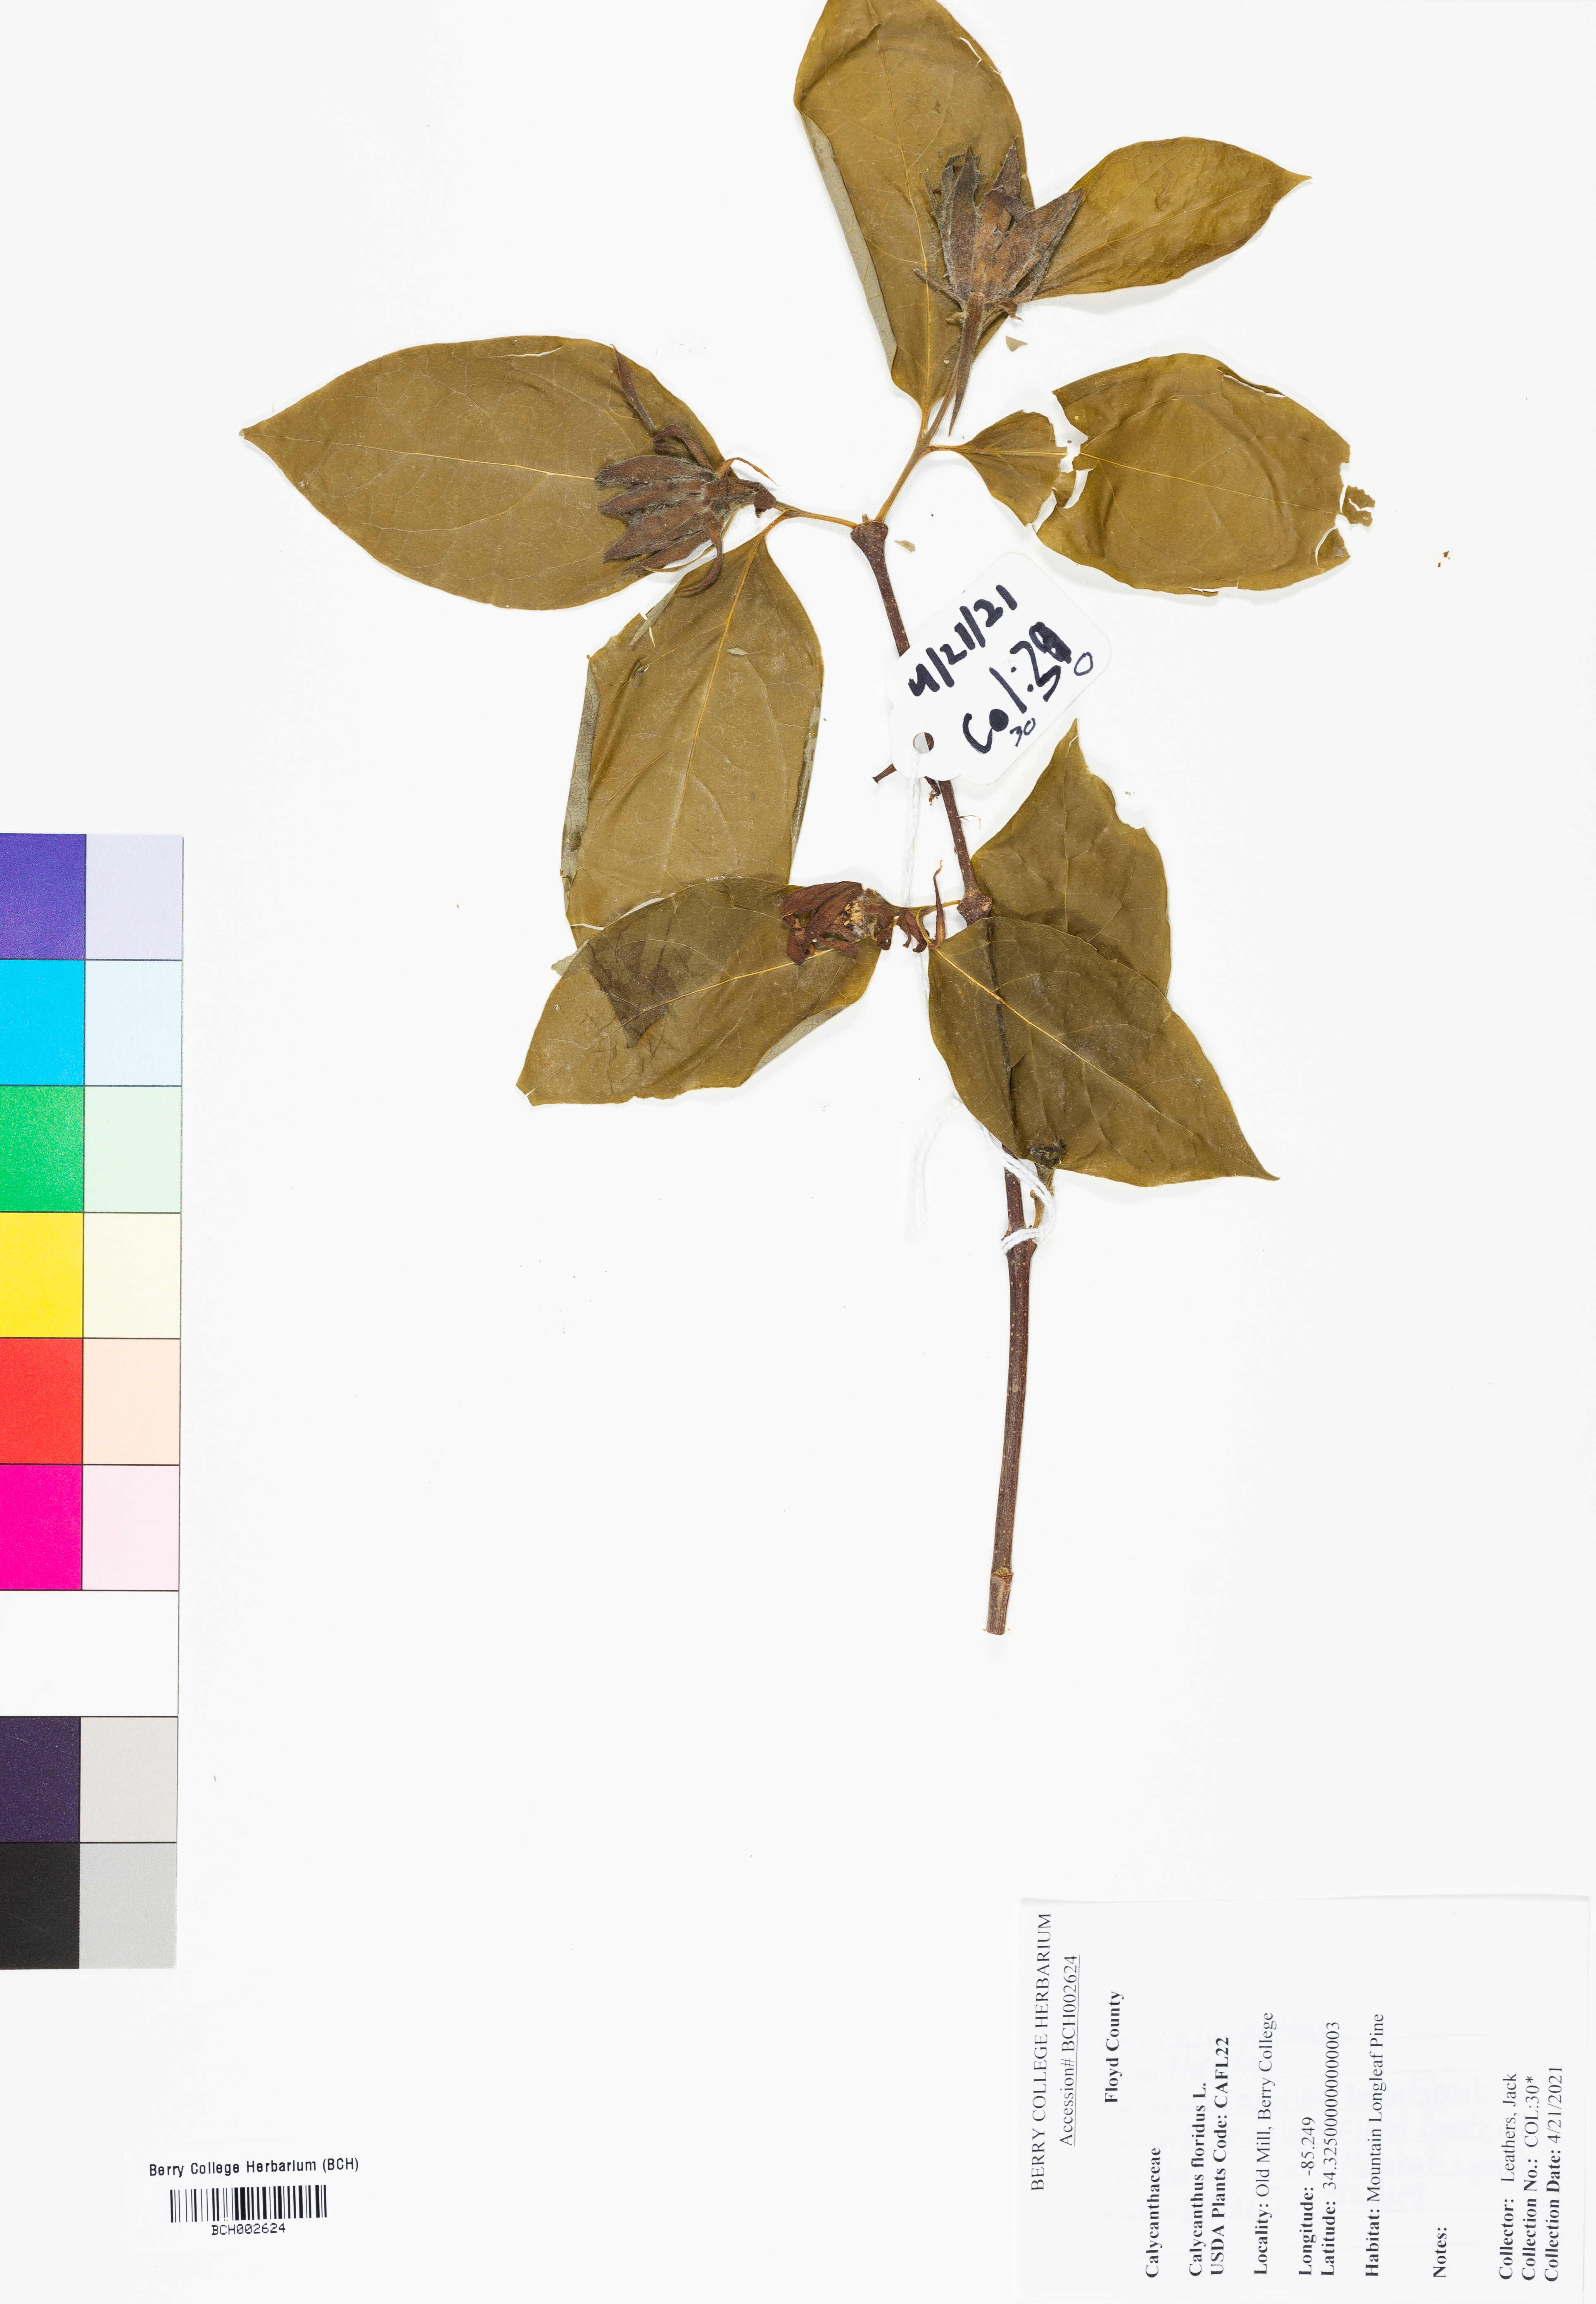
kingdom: Plantae
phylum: Tracheophyta
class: Magnoliopsida
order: Laurales
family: Calycanthaceae
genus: Calycanthus
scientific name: Calycanthus floridus
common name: Carolina-allspice
